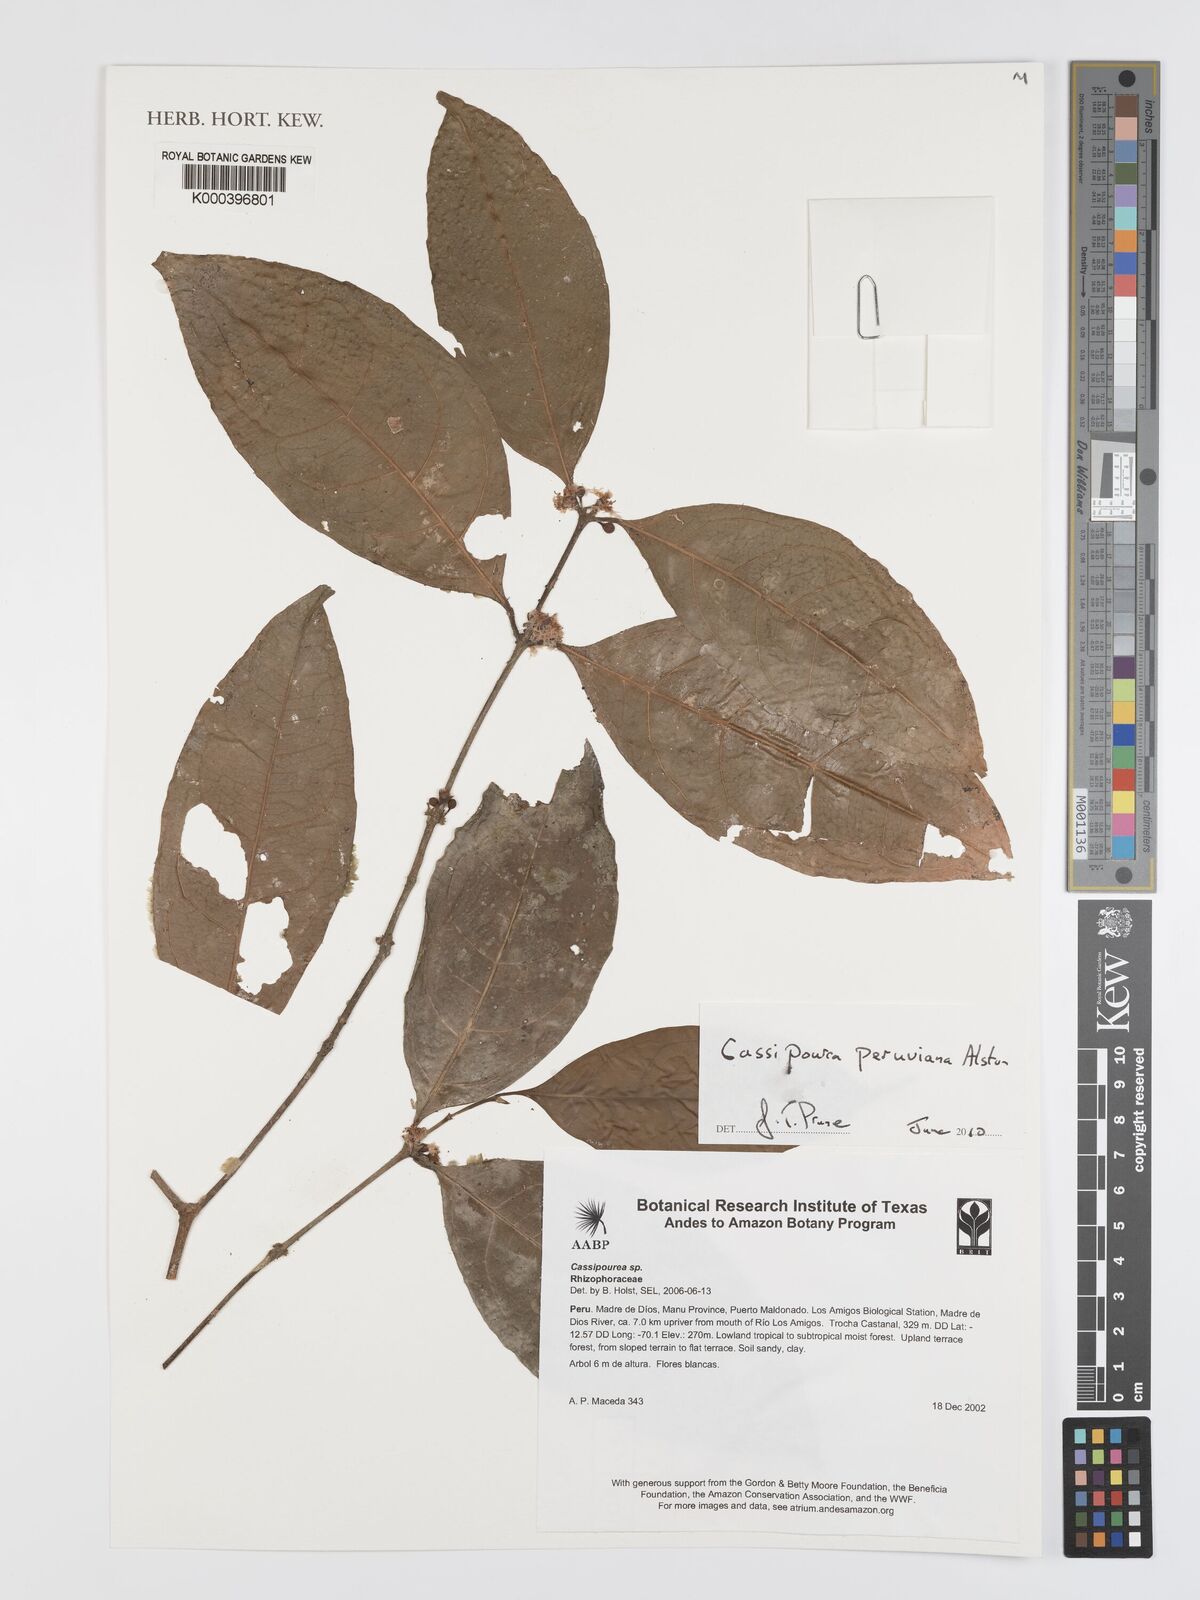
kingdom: Plantae
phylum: Tracheophyta
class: Magnoliopsida
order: Malpighiales
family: Rhizophoraceae
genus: Cassipourea
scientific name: Cassipourea peruviana
